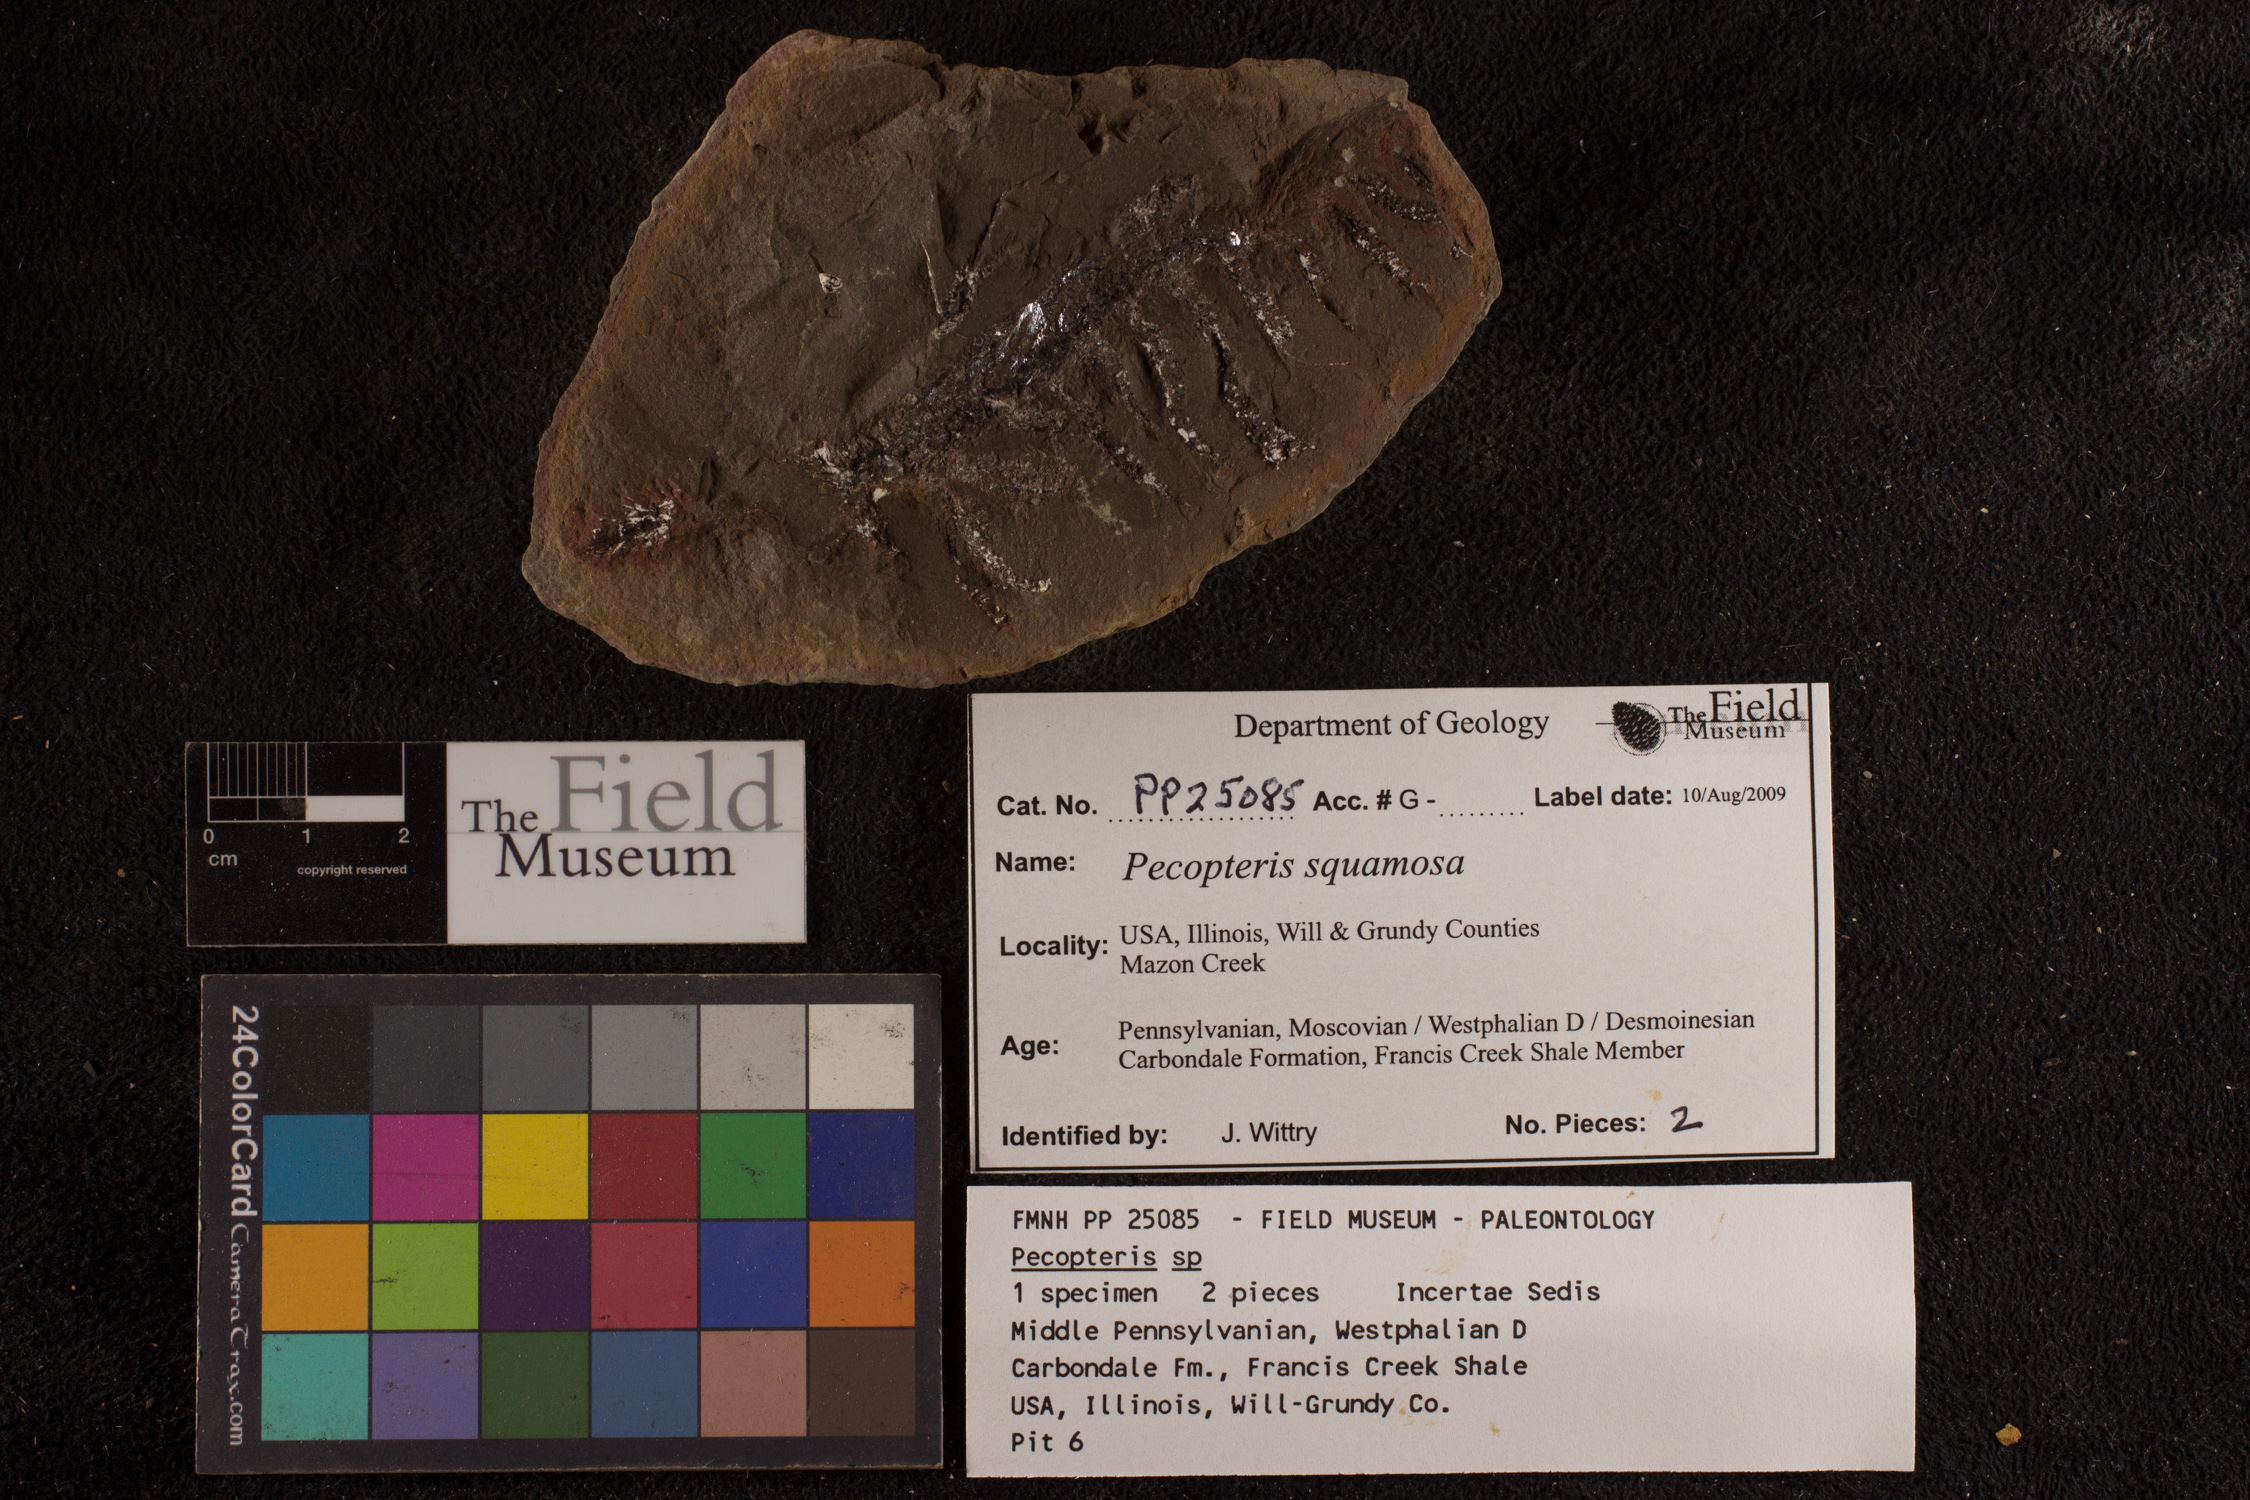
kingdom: Plantae
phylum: Tracheophyta
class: Polypodiopsida
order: Marattiales
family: Asterothecaceae
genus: Pecopteris
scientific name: Pecopteris
